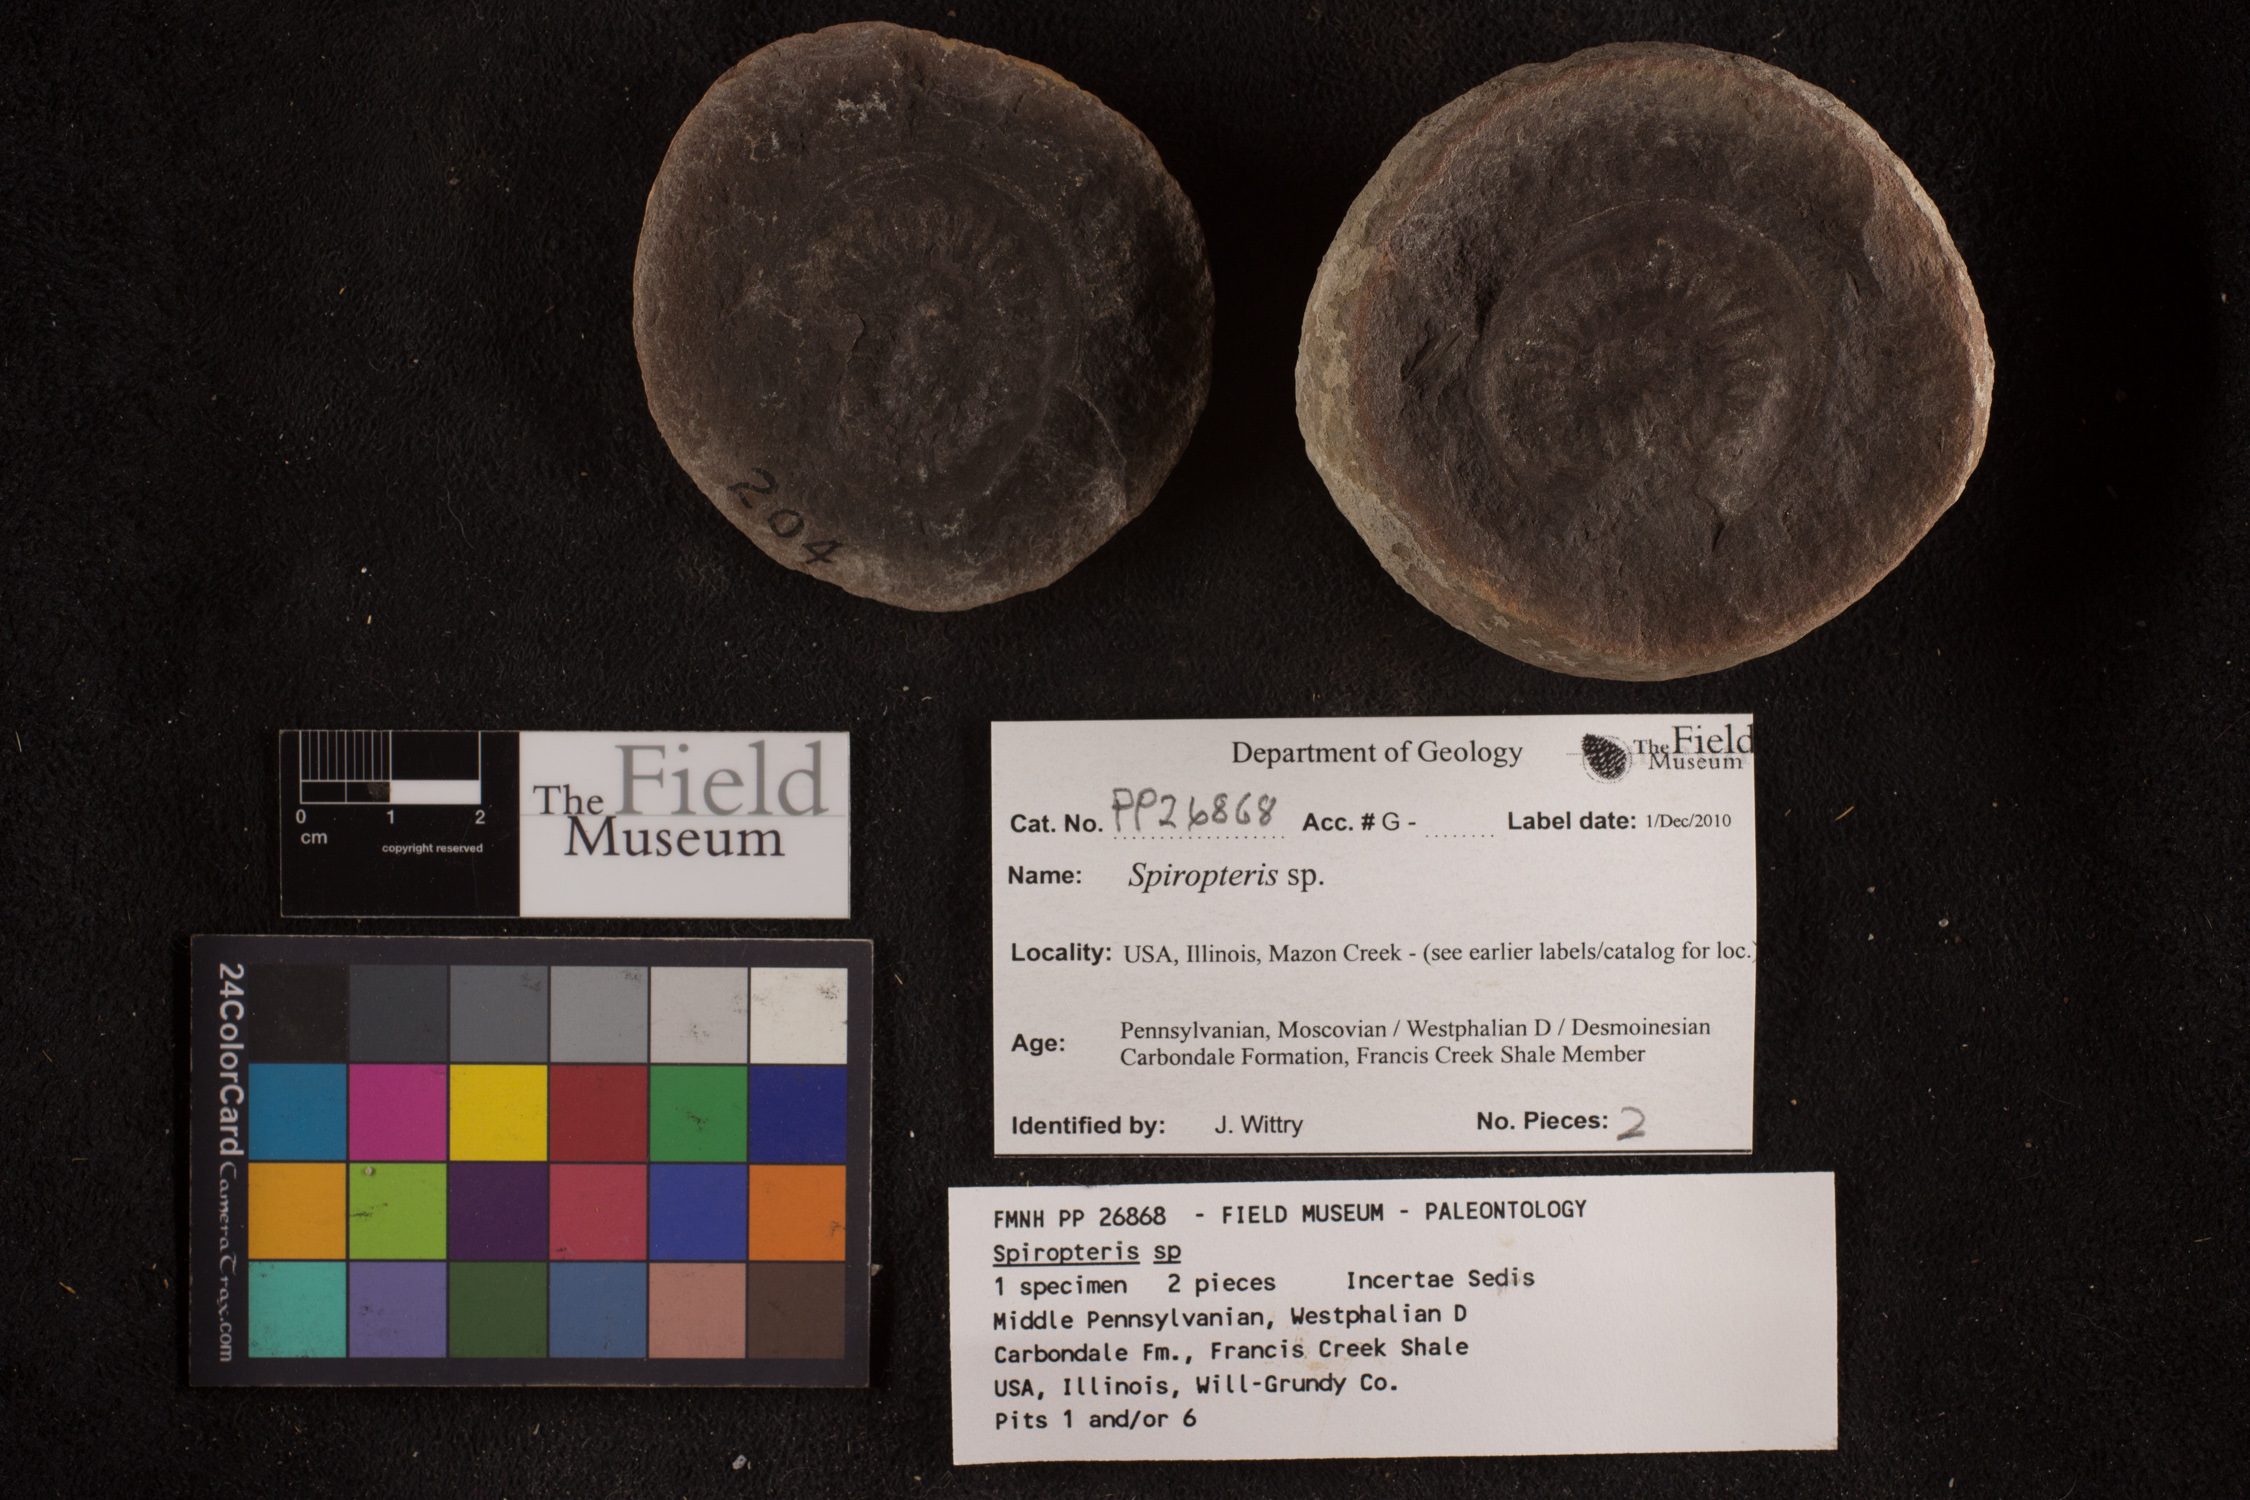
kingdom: Plantae
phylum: Tracheophyta
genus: Spiropteris
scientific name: Spiropteris
